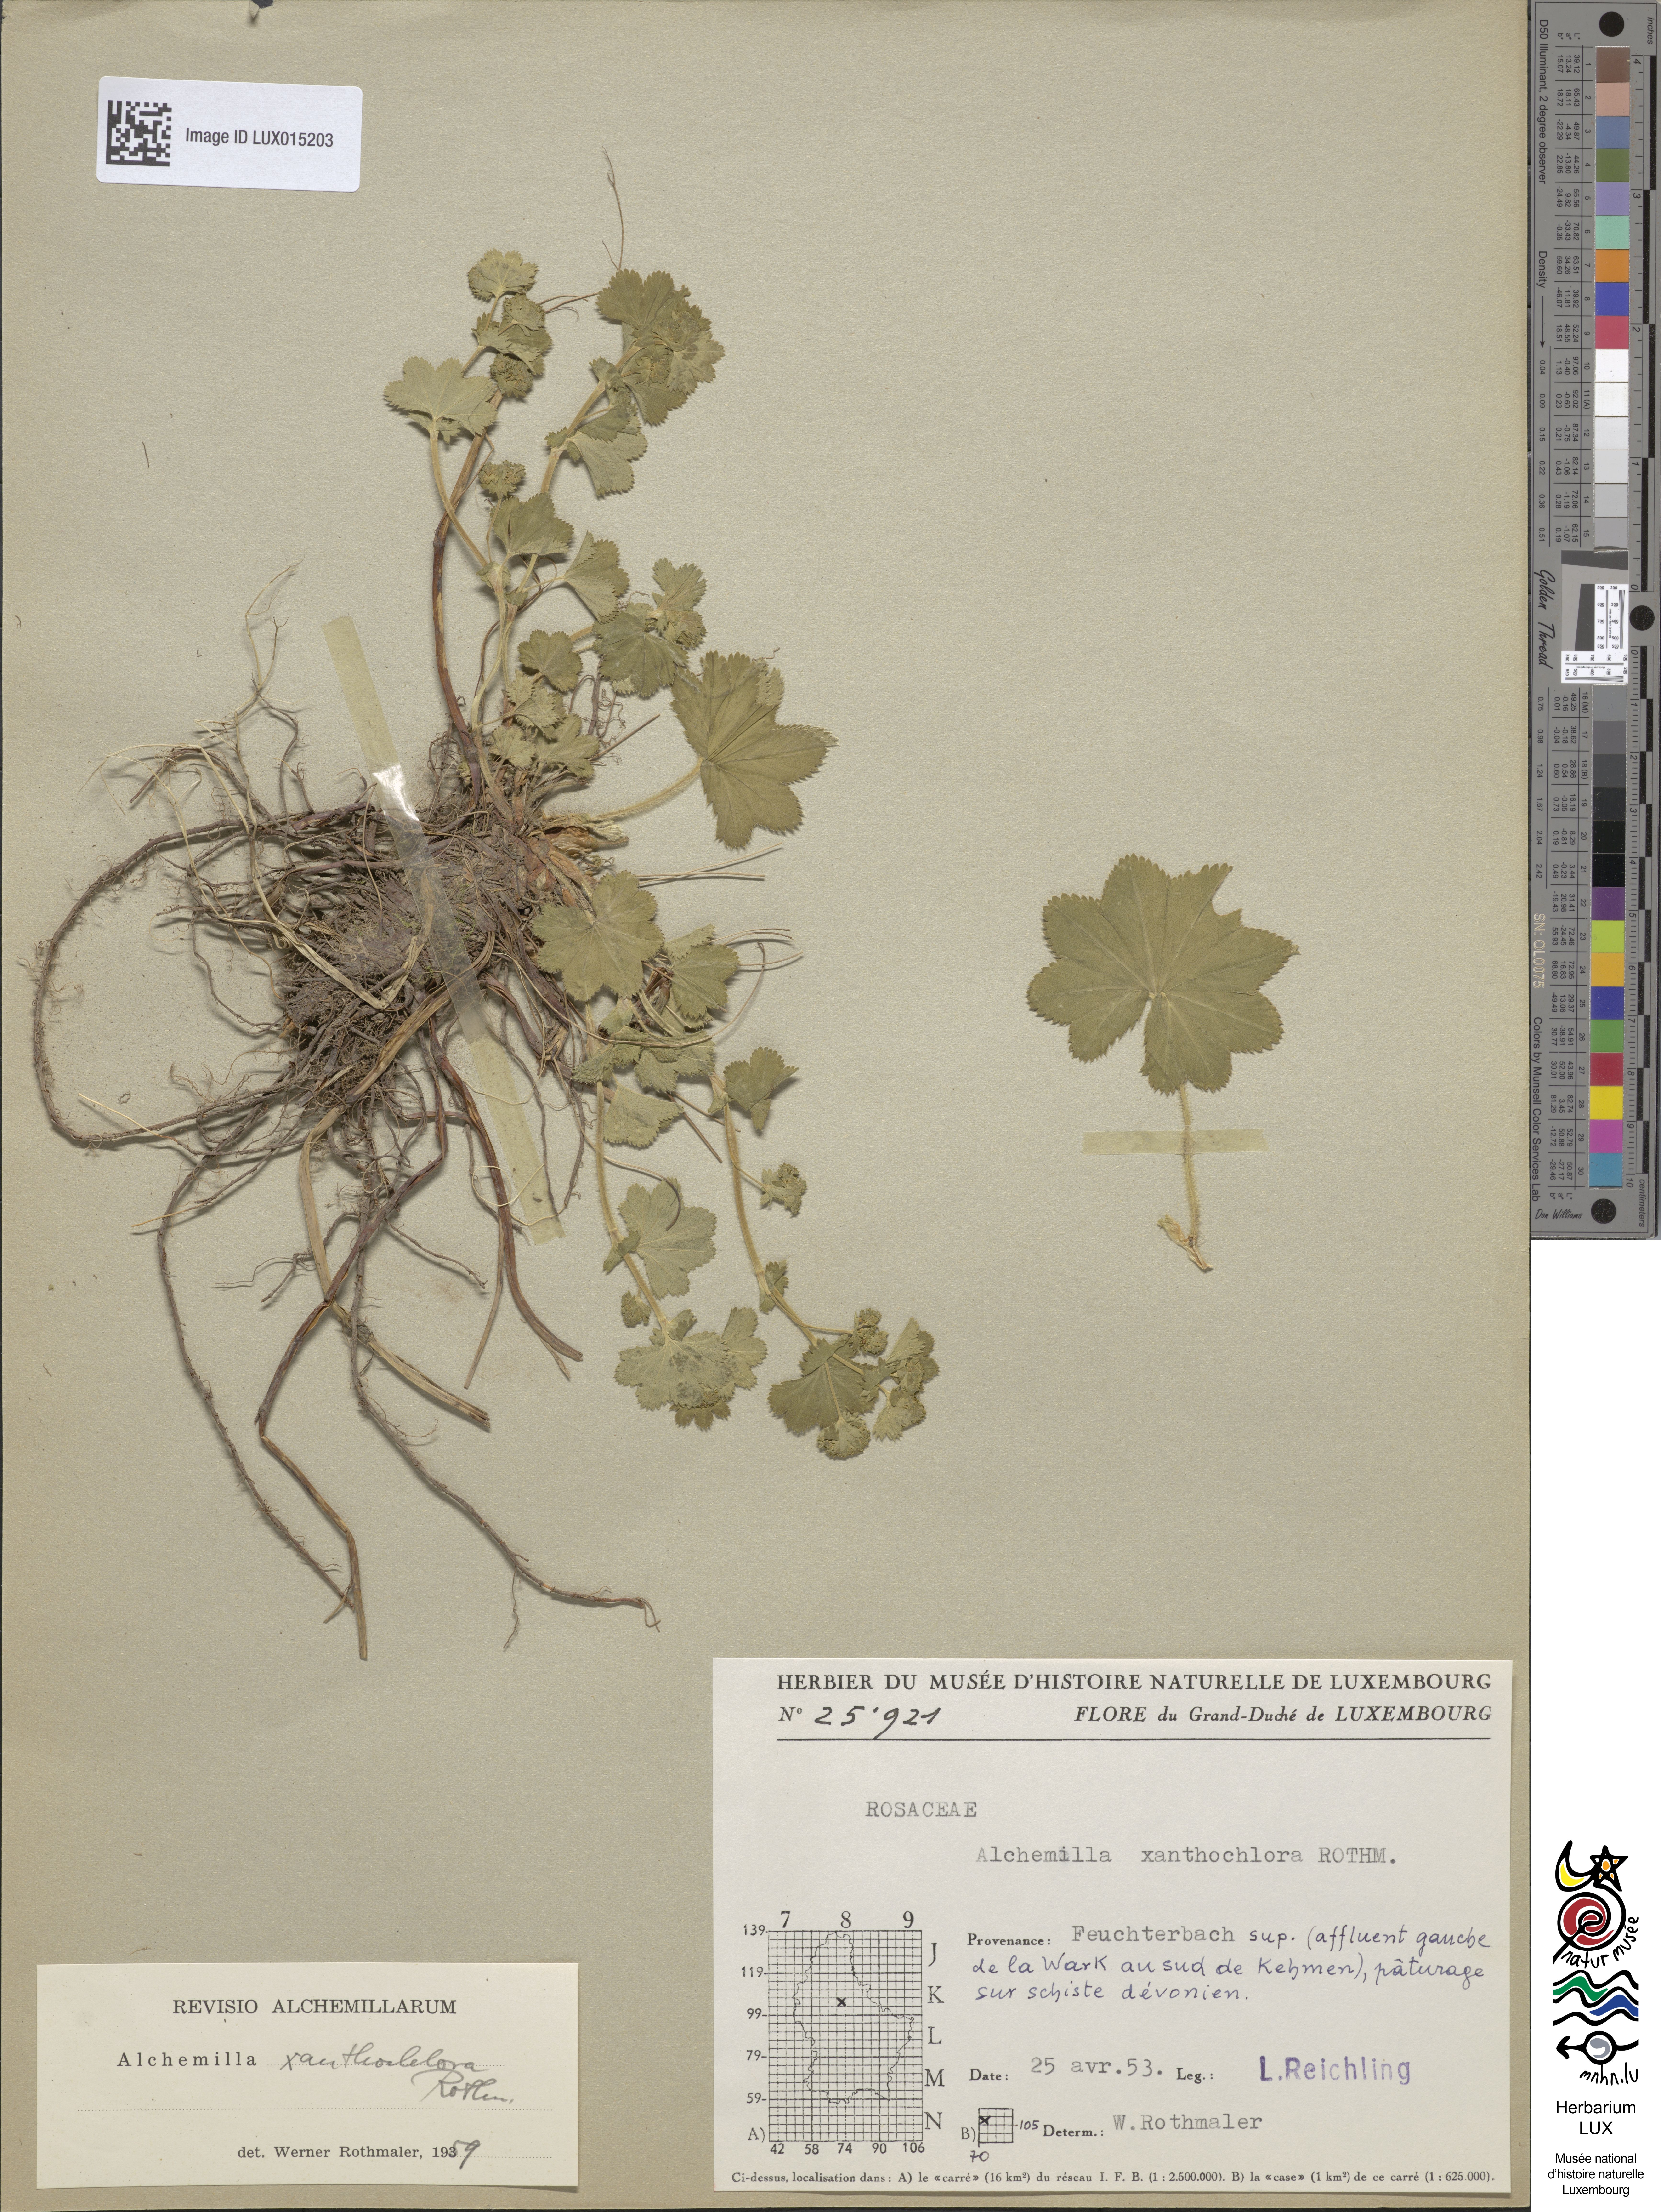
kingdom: Plantae
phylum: Tracheophyta
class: Magnoliopsida
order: Rosales
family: Rosaceae
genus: Alchemilla
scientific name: Alchemilla xanthochlora
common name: Intermediate lady's-mantle
